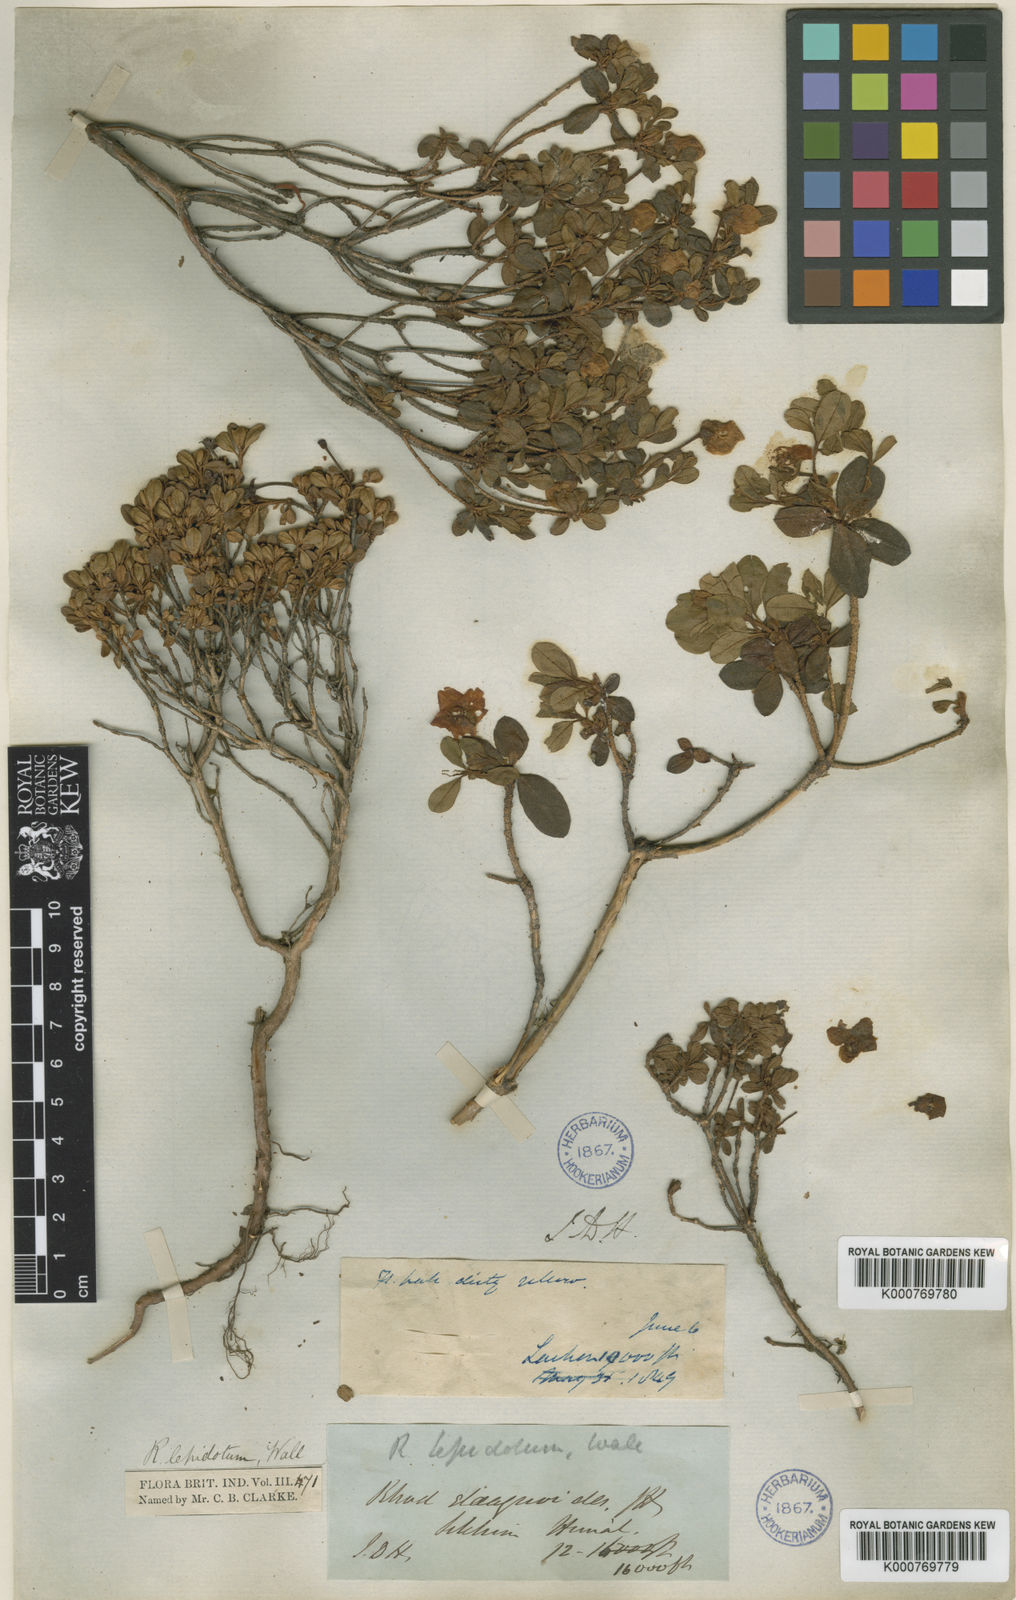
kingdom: Plantae
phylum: Tracheophyta
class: Magnoliopsida
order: Ericales
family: Ericaceae
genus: Rhododendron
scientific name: Rhododendron lepidotum
